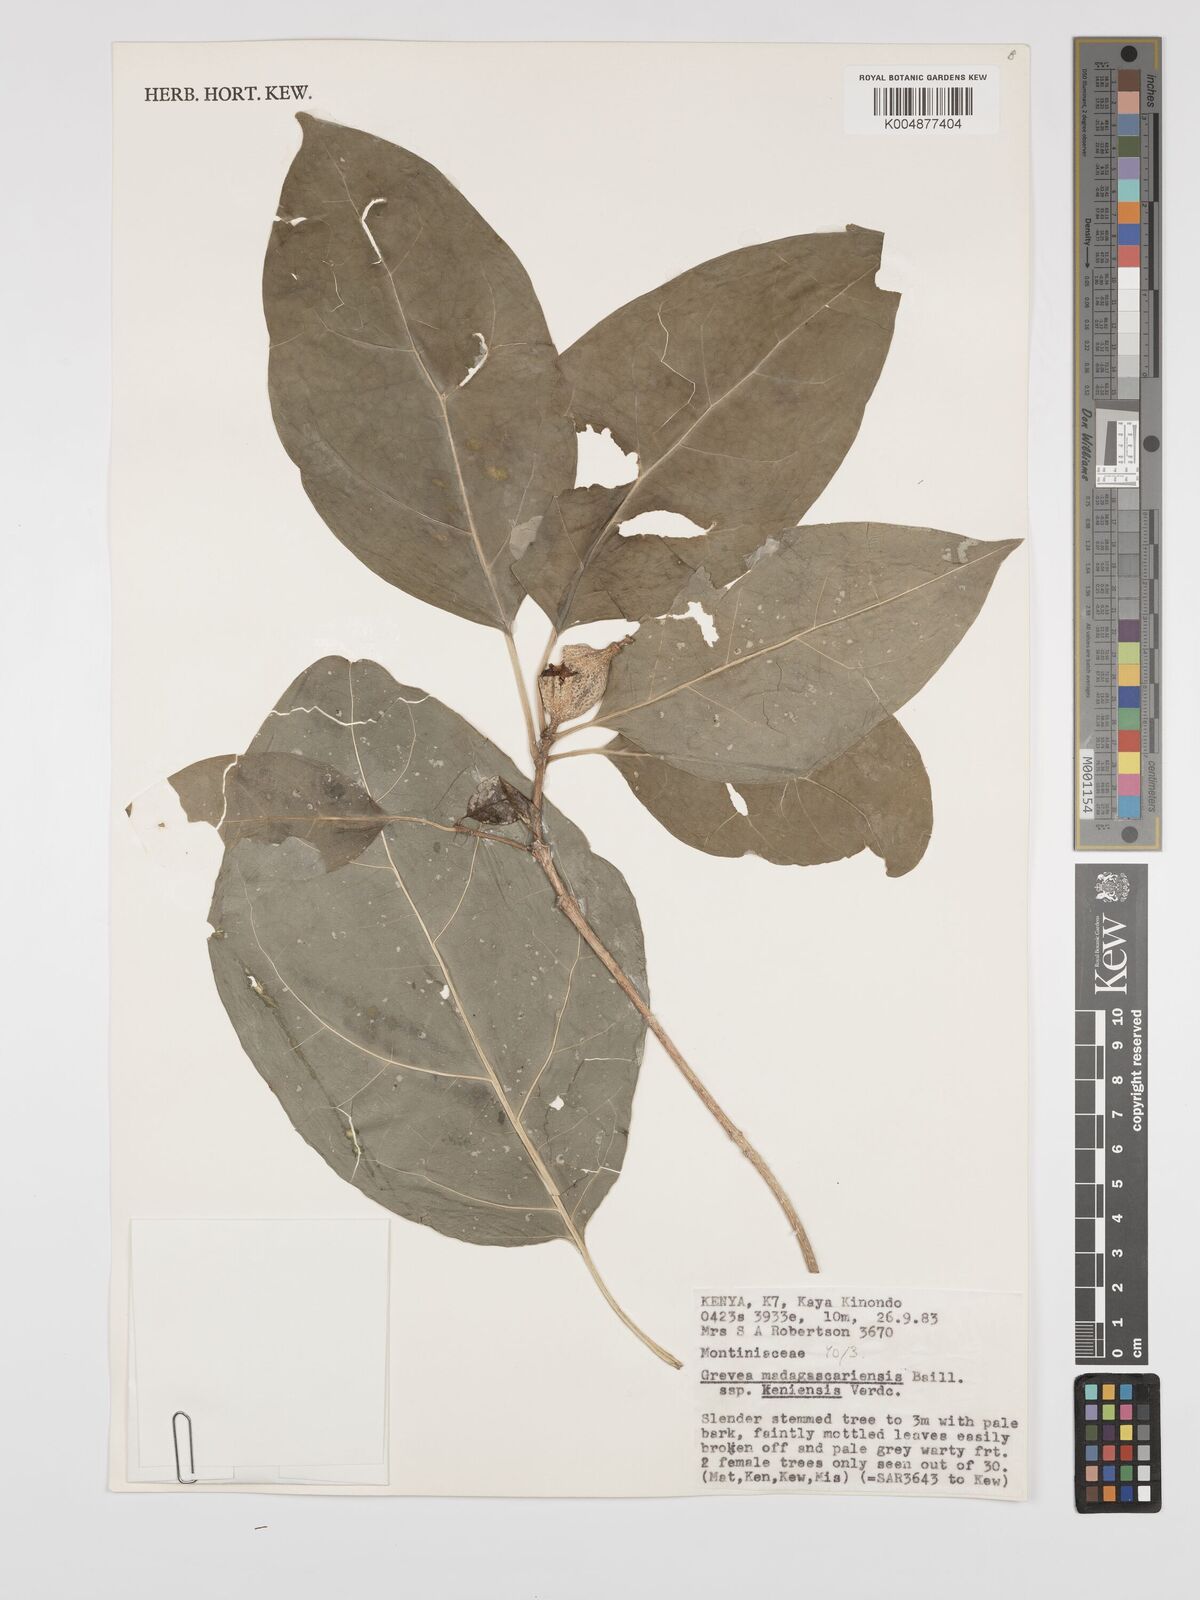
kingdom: Plantae
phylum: Tracheophyta
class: Magnoliopsida
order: Solanales
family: Montiniaceae
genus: Grevea
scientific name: Grevea
